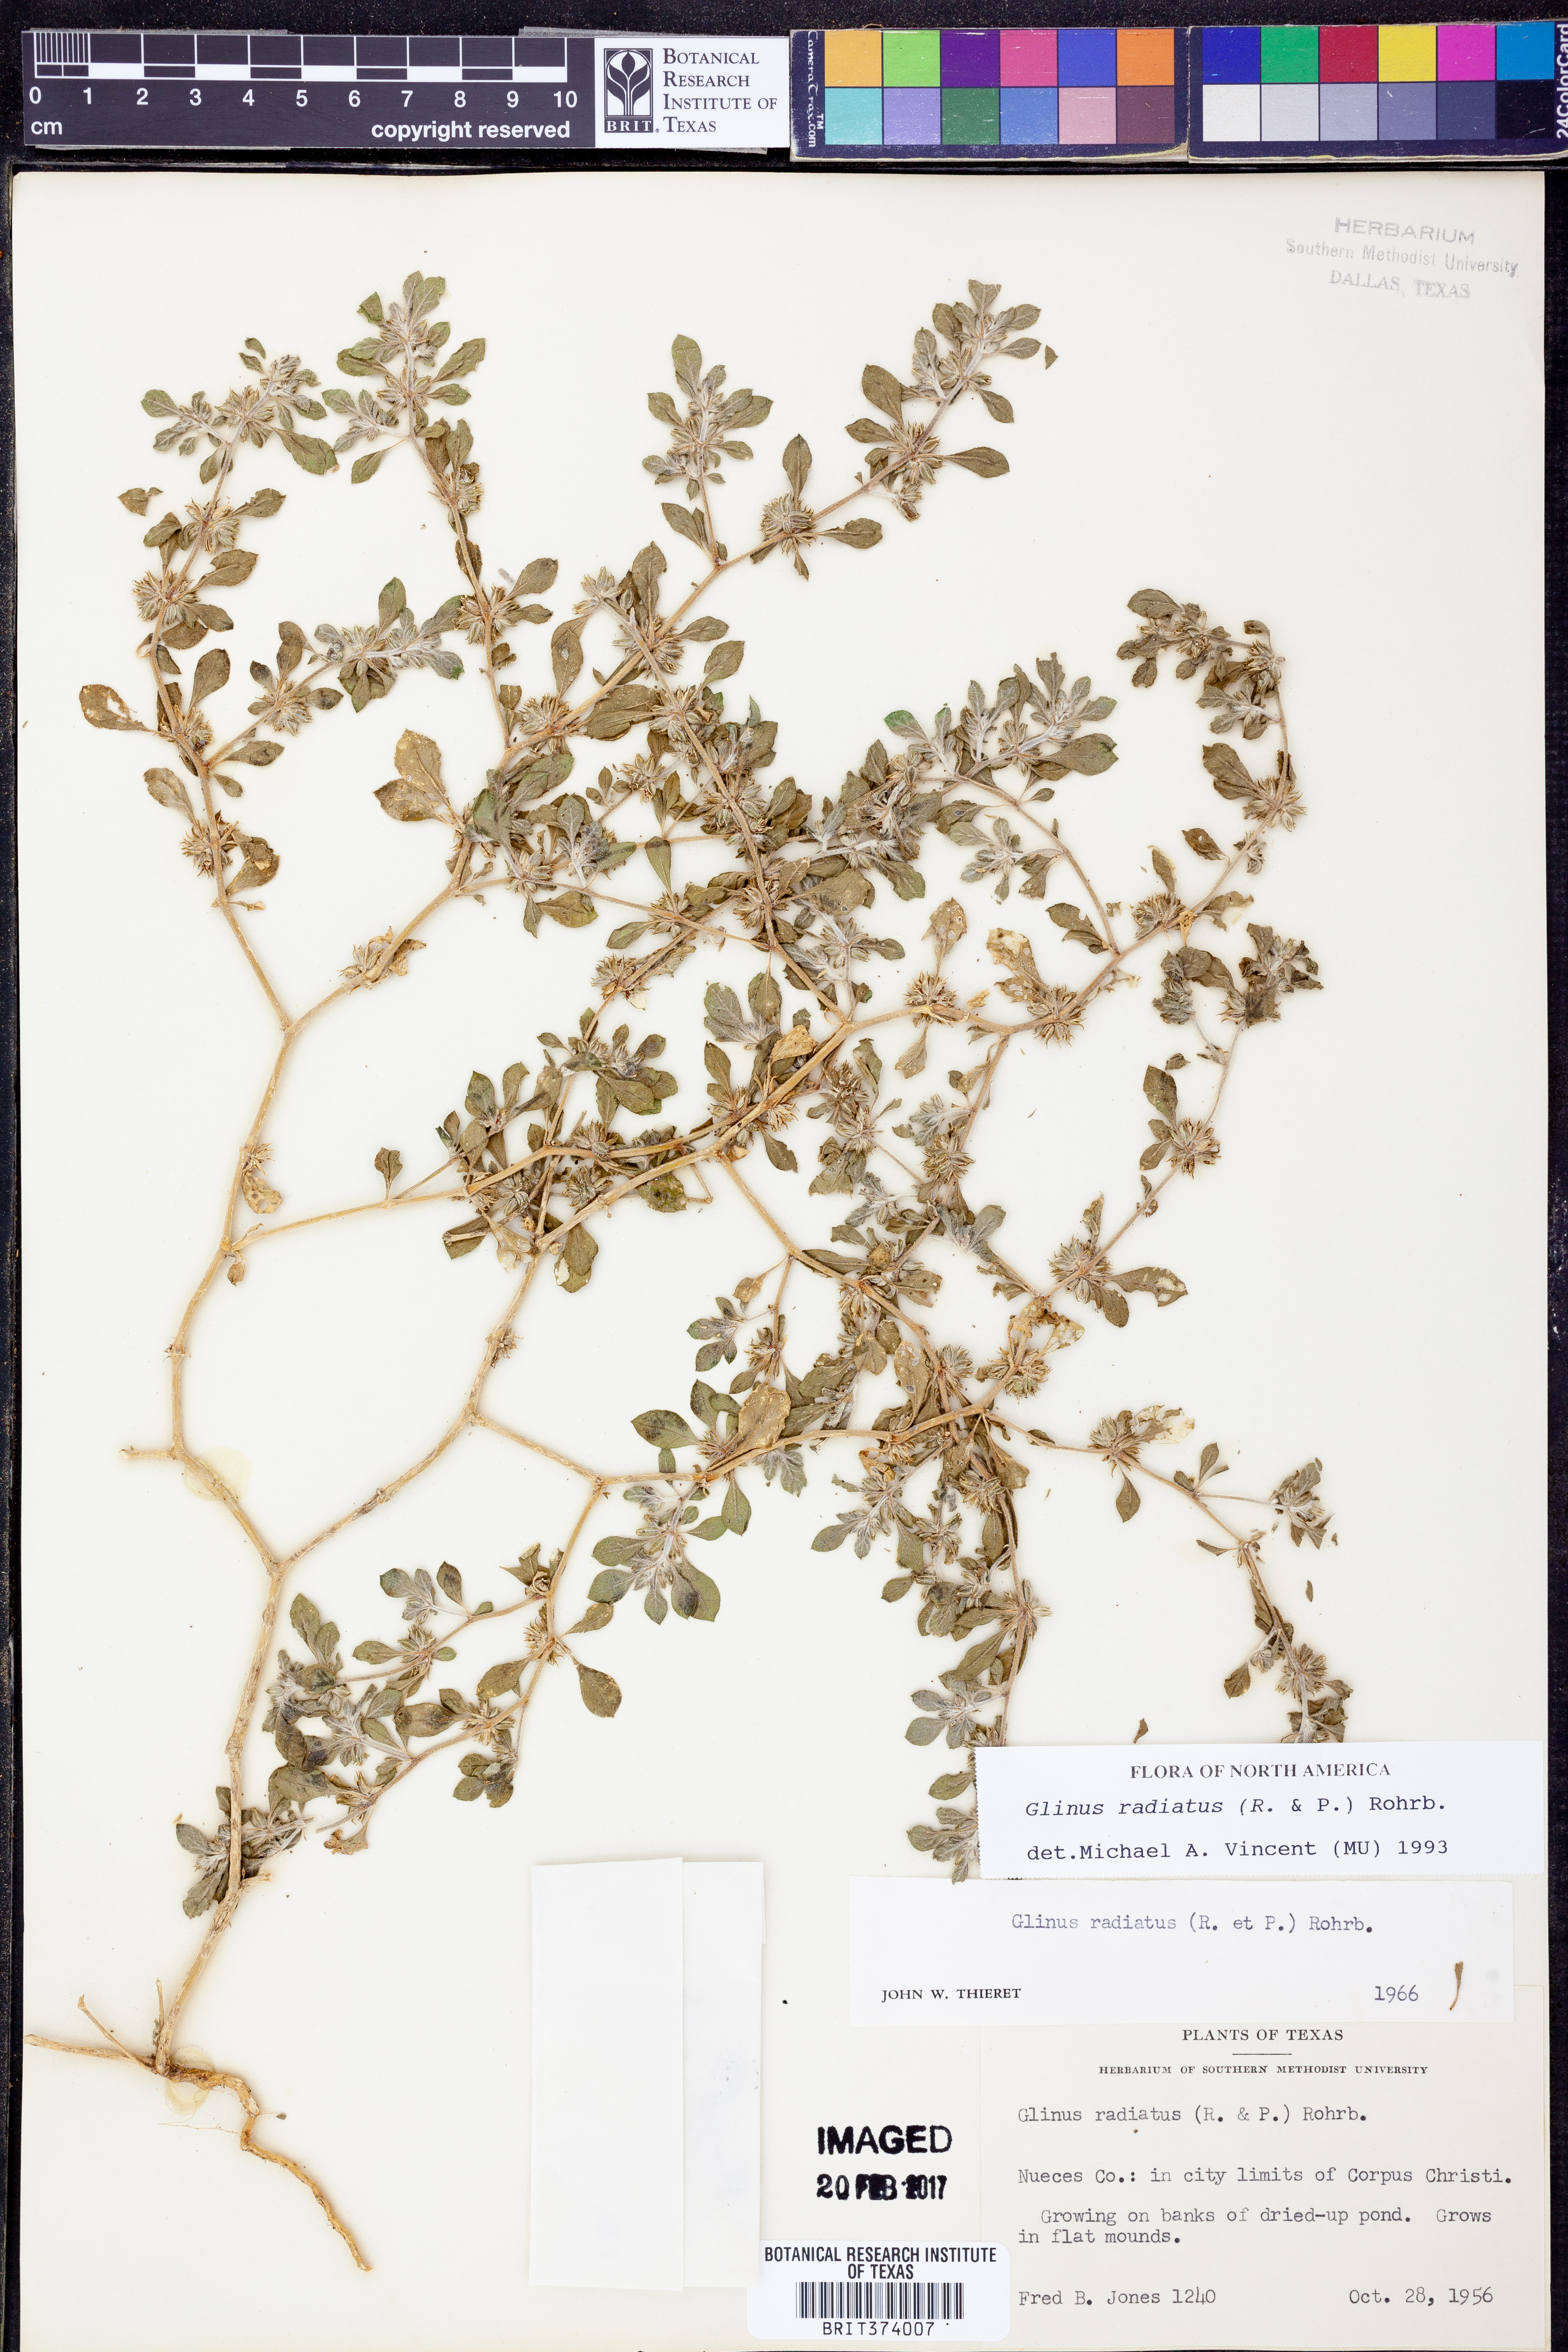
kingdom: Plantae
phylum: Tracheophyta
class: Magnoliopsida
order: Caryophyllales
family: Molluginaceae
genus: Glinus
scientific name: Glinus radiatus
